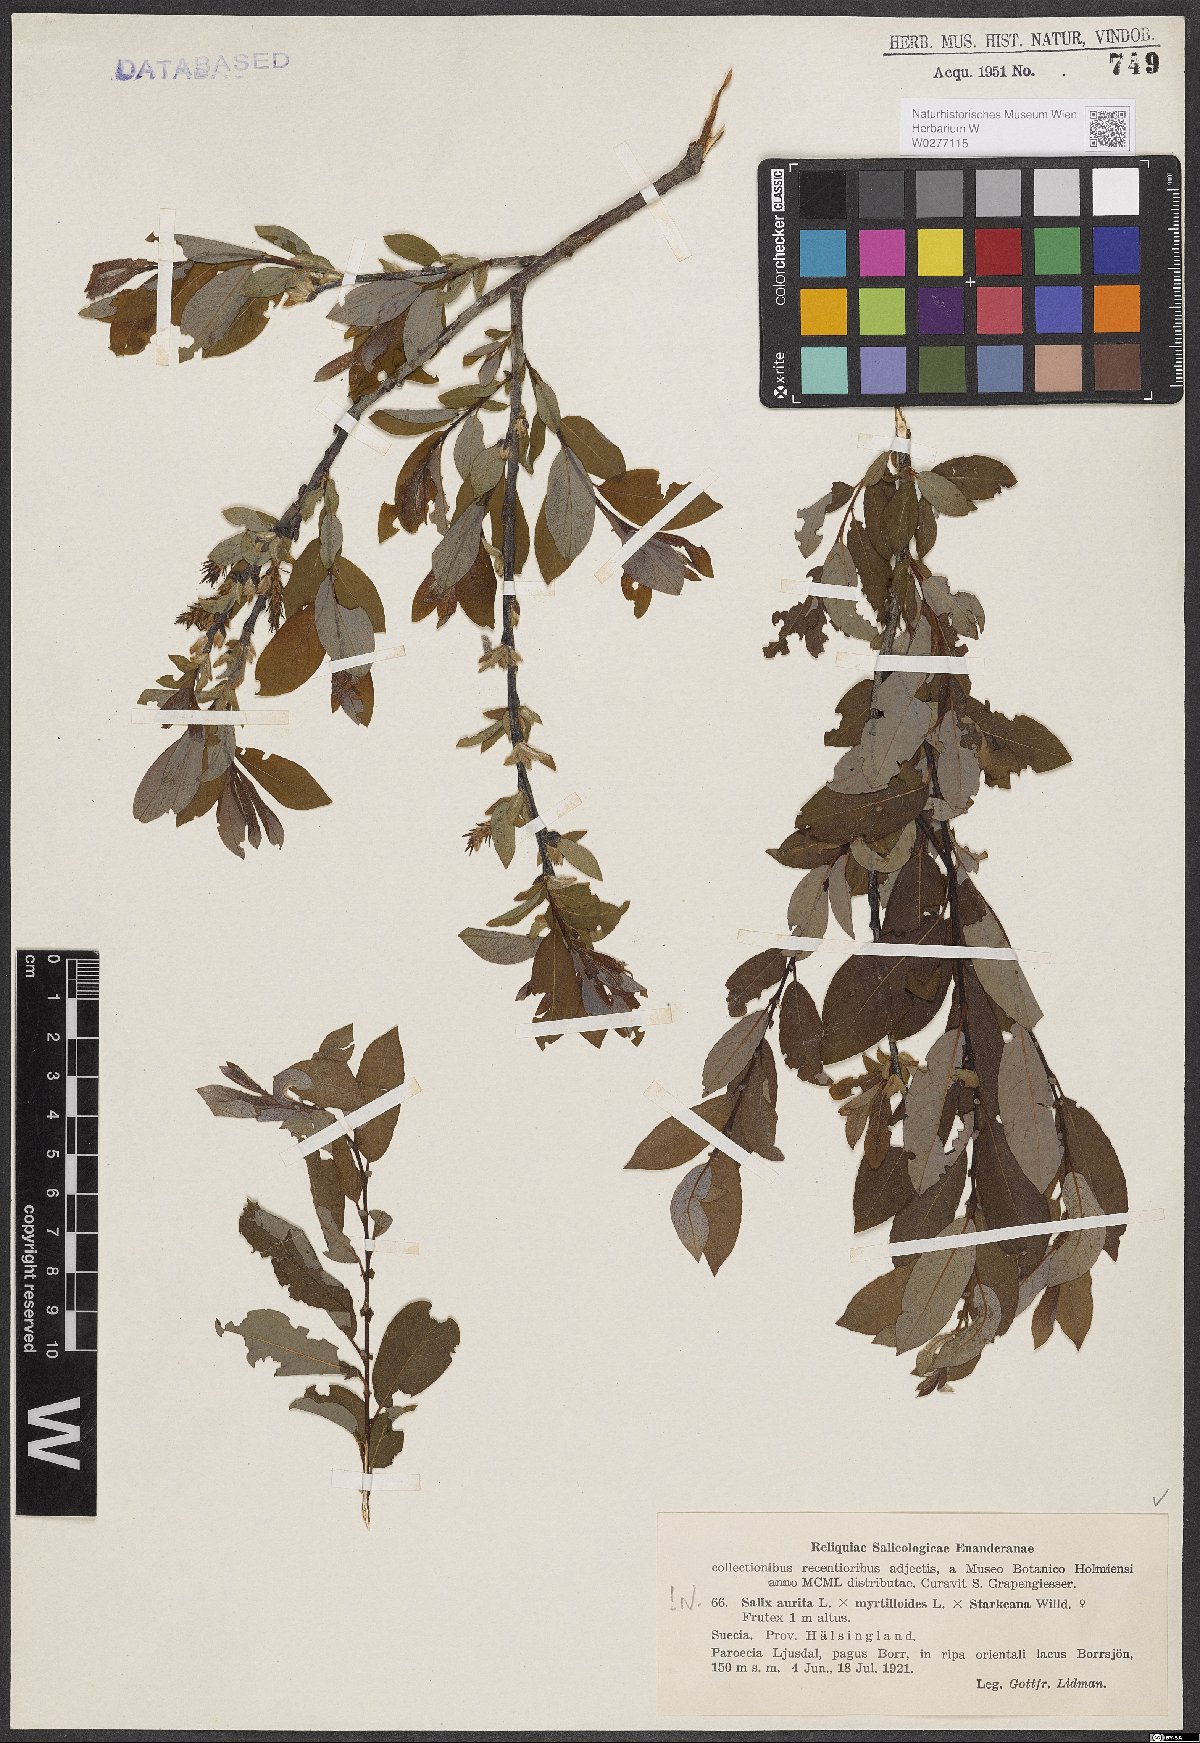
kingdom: Plantae
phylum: Tracheophyta
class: Magnoliopsida
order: Malpighiales
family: Salicaceae
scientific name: Salicaceae
